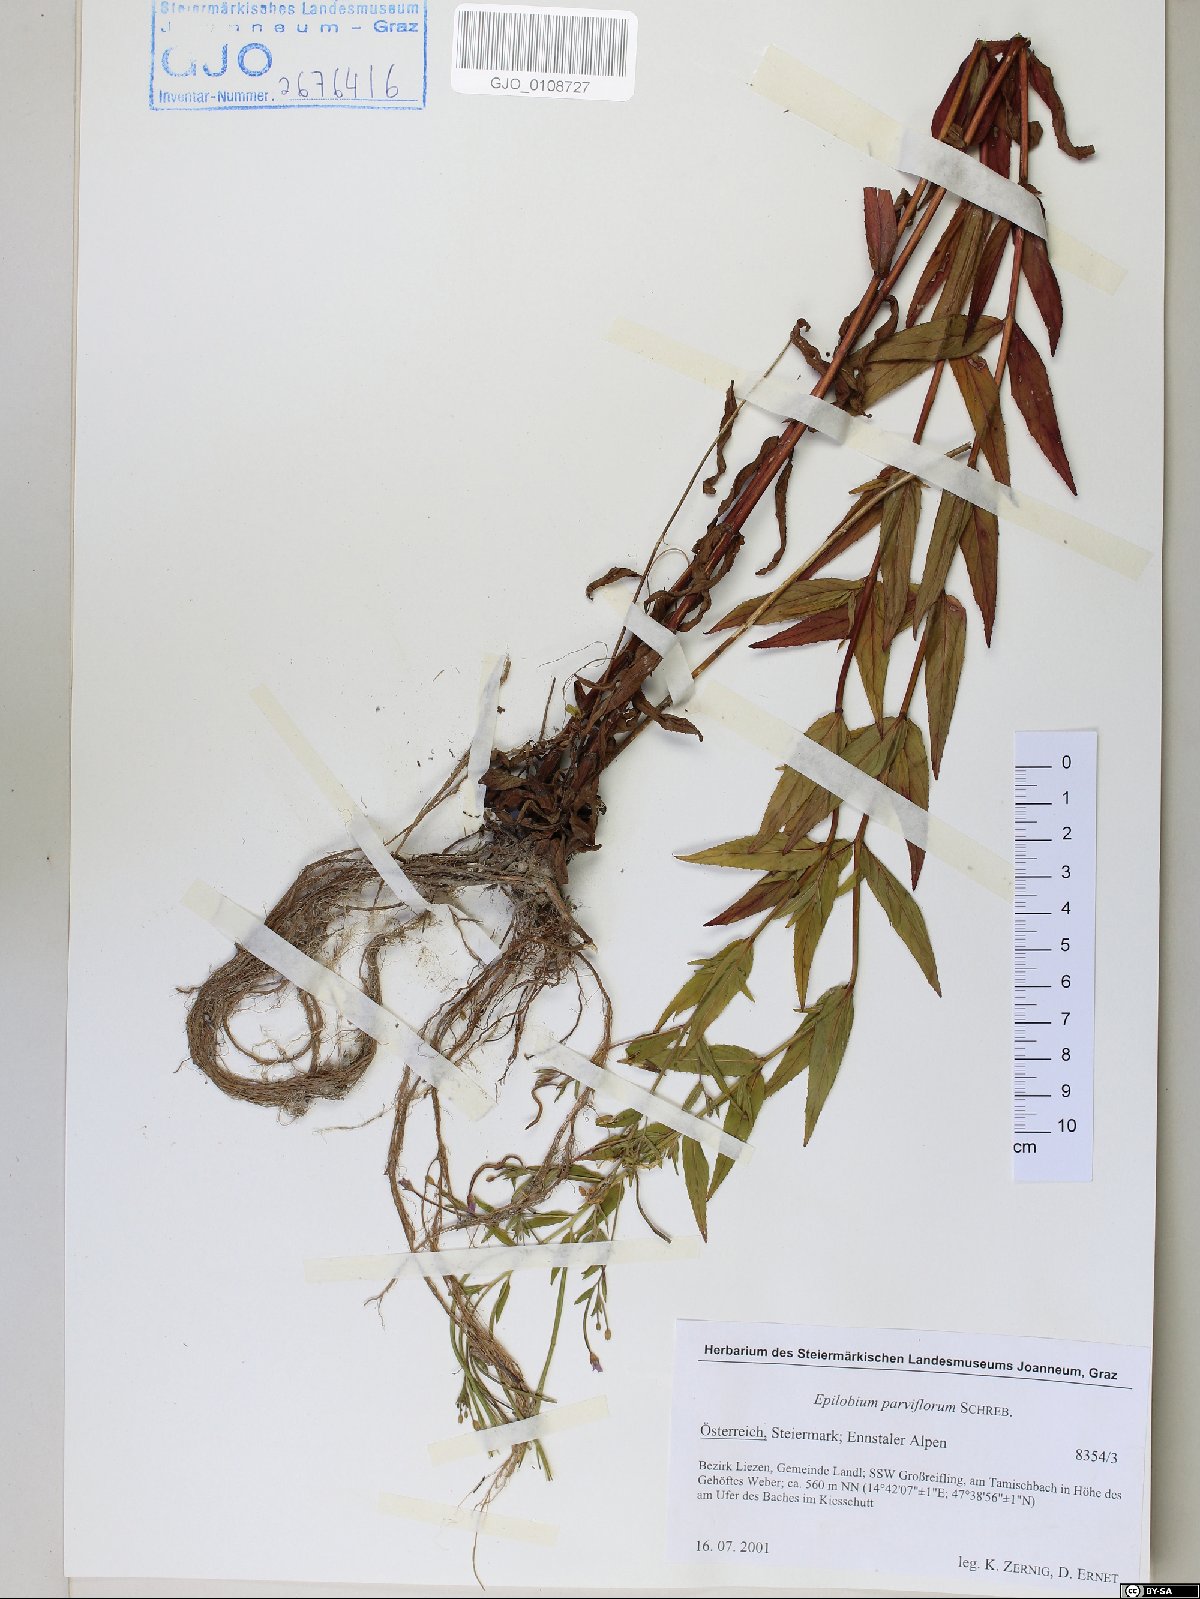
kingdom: Plantae
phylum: Tracheophyta
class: Magnoliopsida
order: Myrtales
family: Onagraceae
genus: Epilobium
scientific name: Epilobium parviflorum
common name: Hoary willowherb
